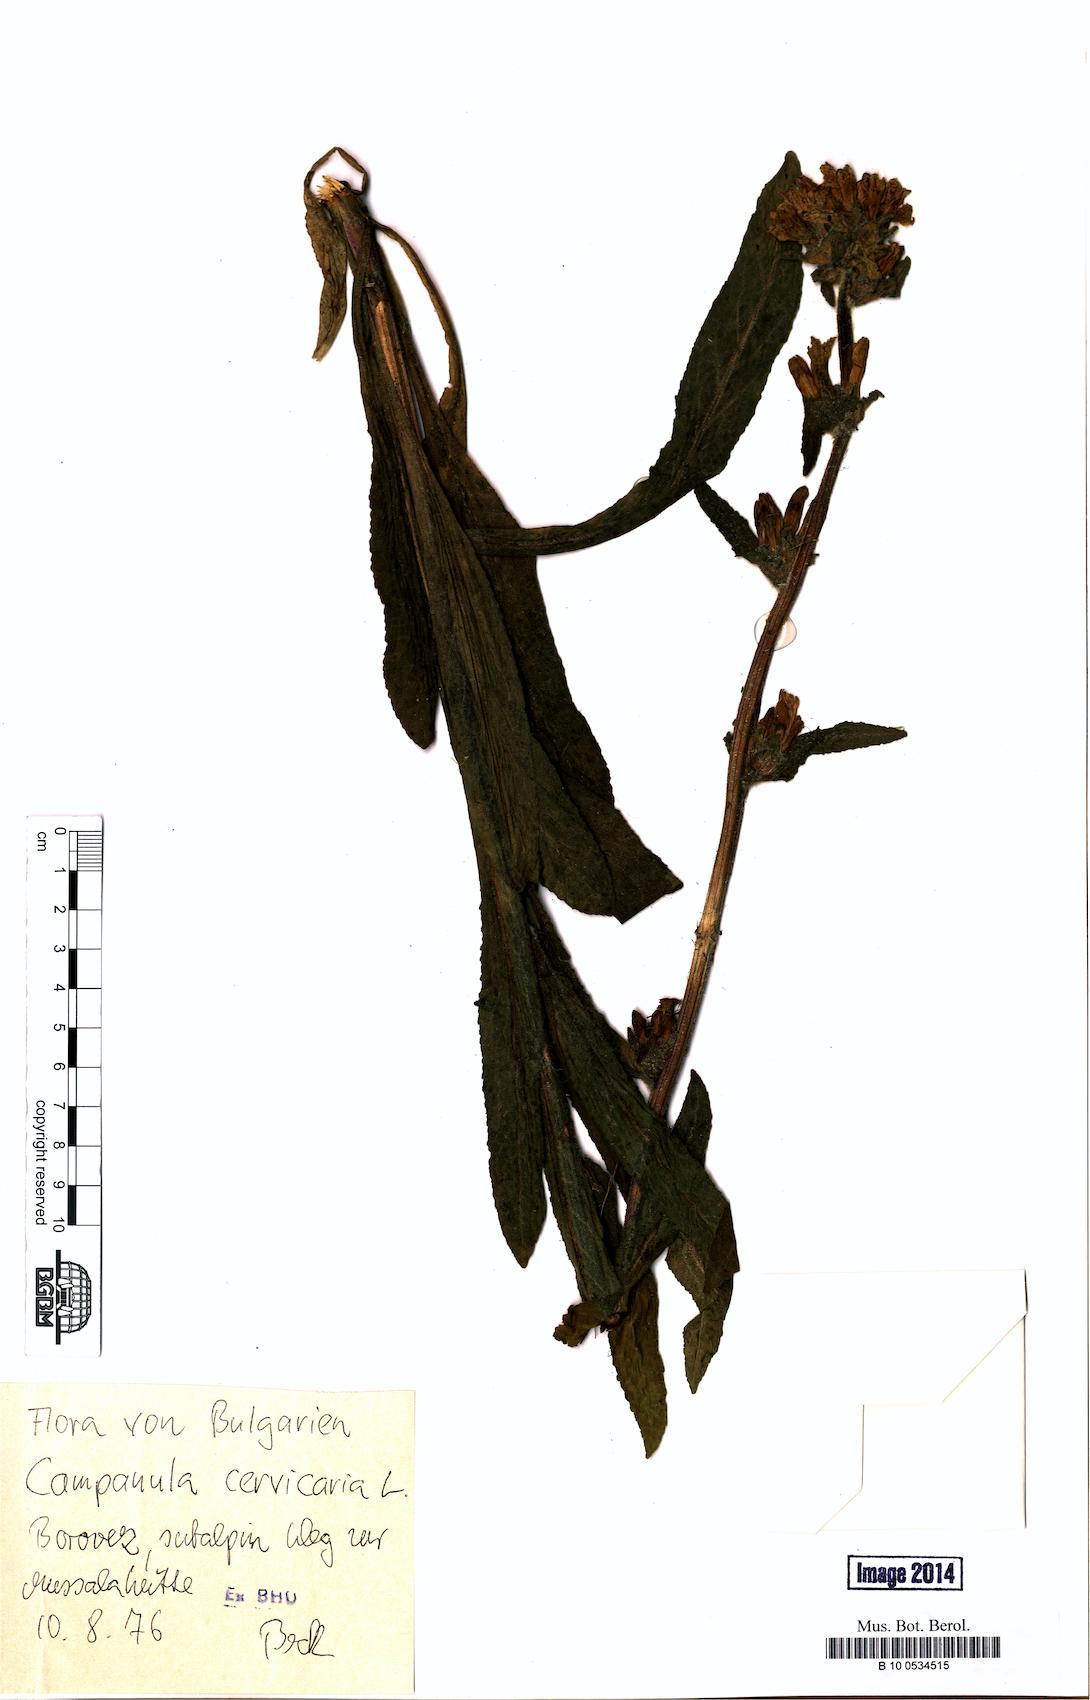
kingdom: Plantae
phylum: Tracheophyta
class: Magnoliopsida
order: Asterales
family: Campanulaceae
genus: Campanula
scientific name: Campanula cervicaria
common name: Bristly bellflower
